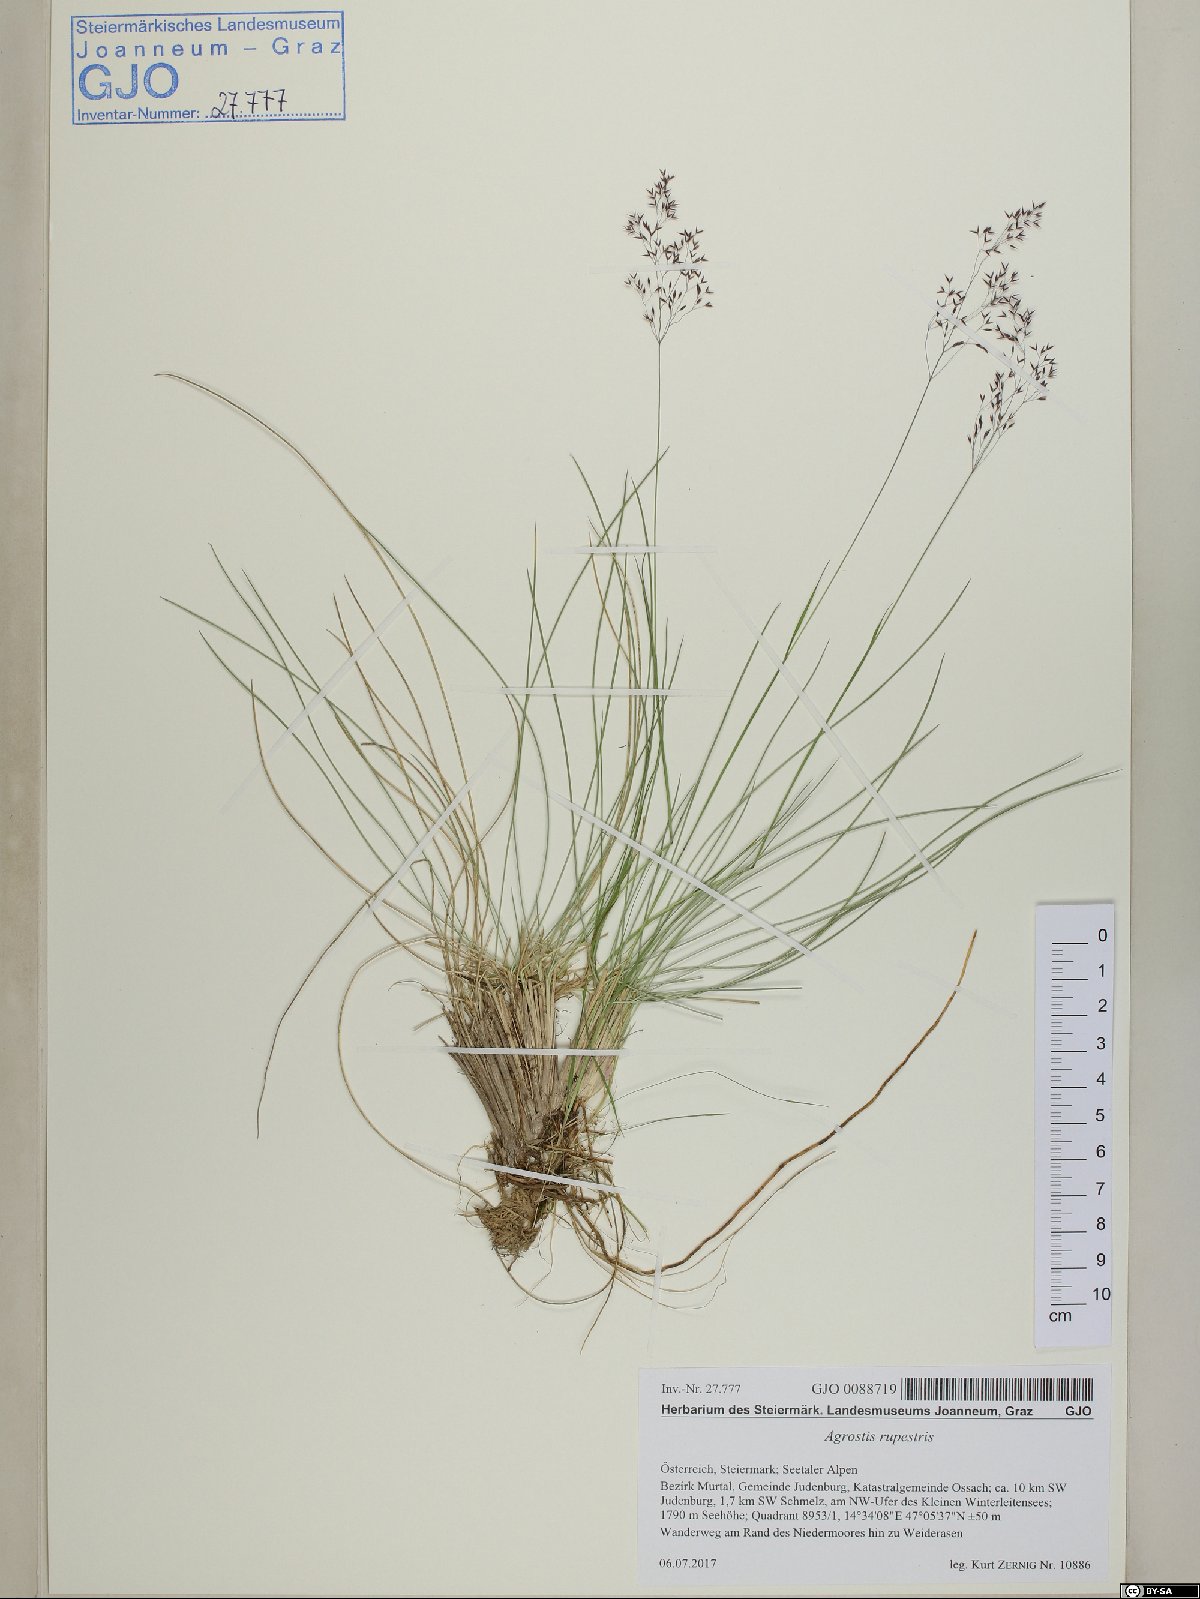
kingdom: Plantae
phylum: Tracheophyta
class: Liliopsida
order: Poales
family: Poaceae
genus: Agrostis
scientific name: Agrostis rupestris
